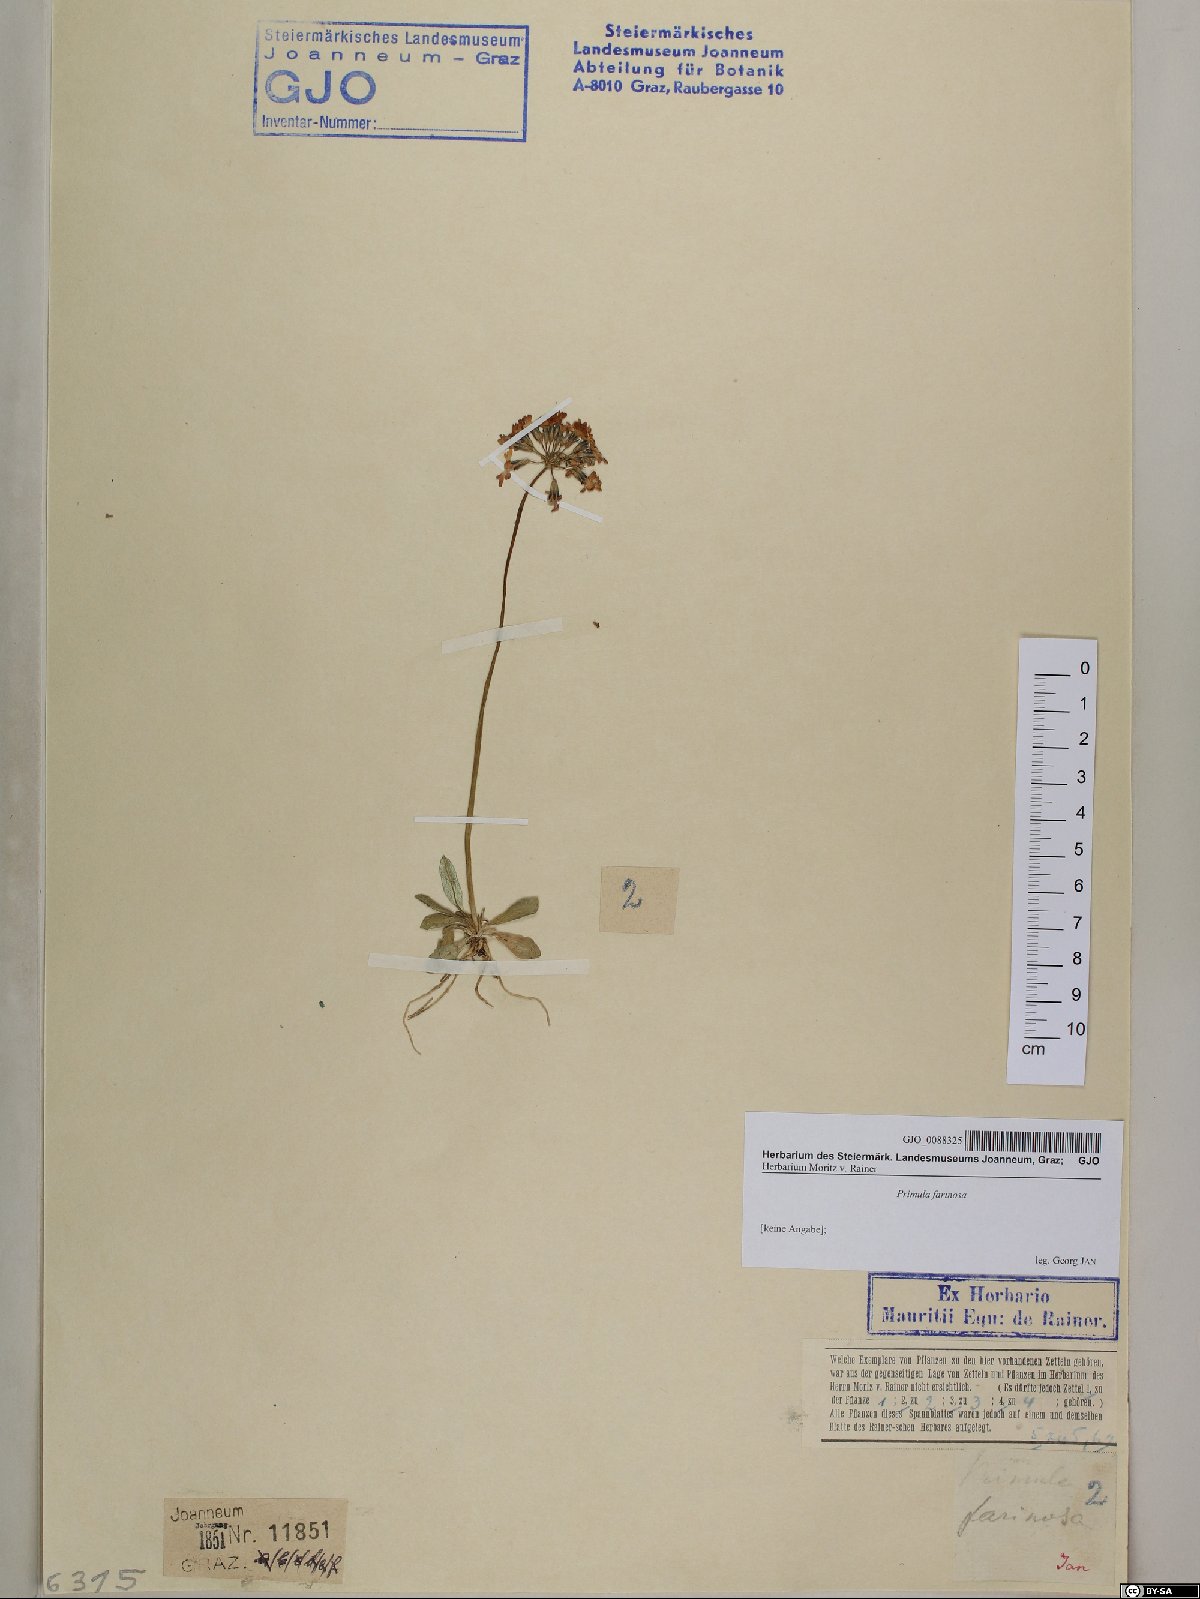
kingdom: Plantae
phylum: Tracheophyta
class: Magnoliopsida
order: Ericales
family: Primulaceae
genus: Primula
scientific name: Primula farinosa
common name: Bird's-eye primrose
